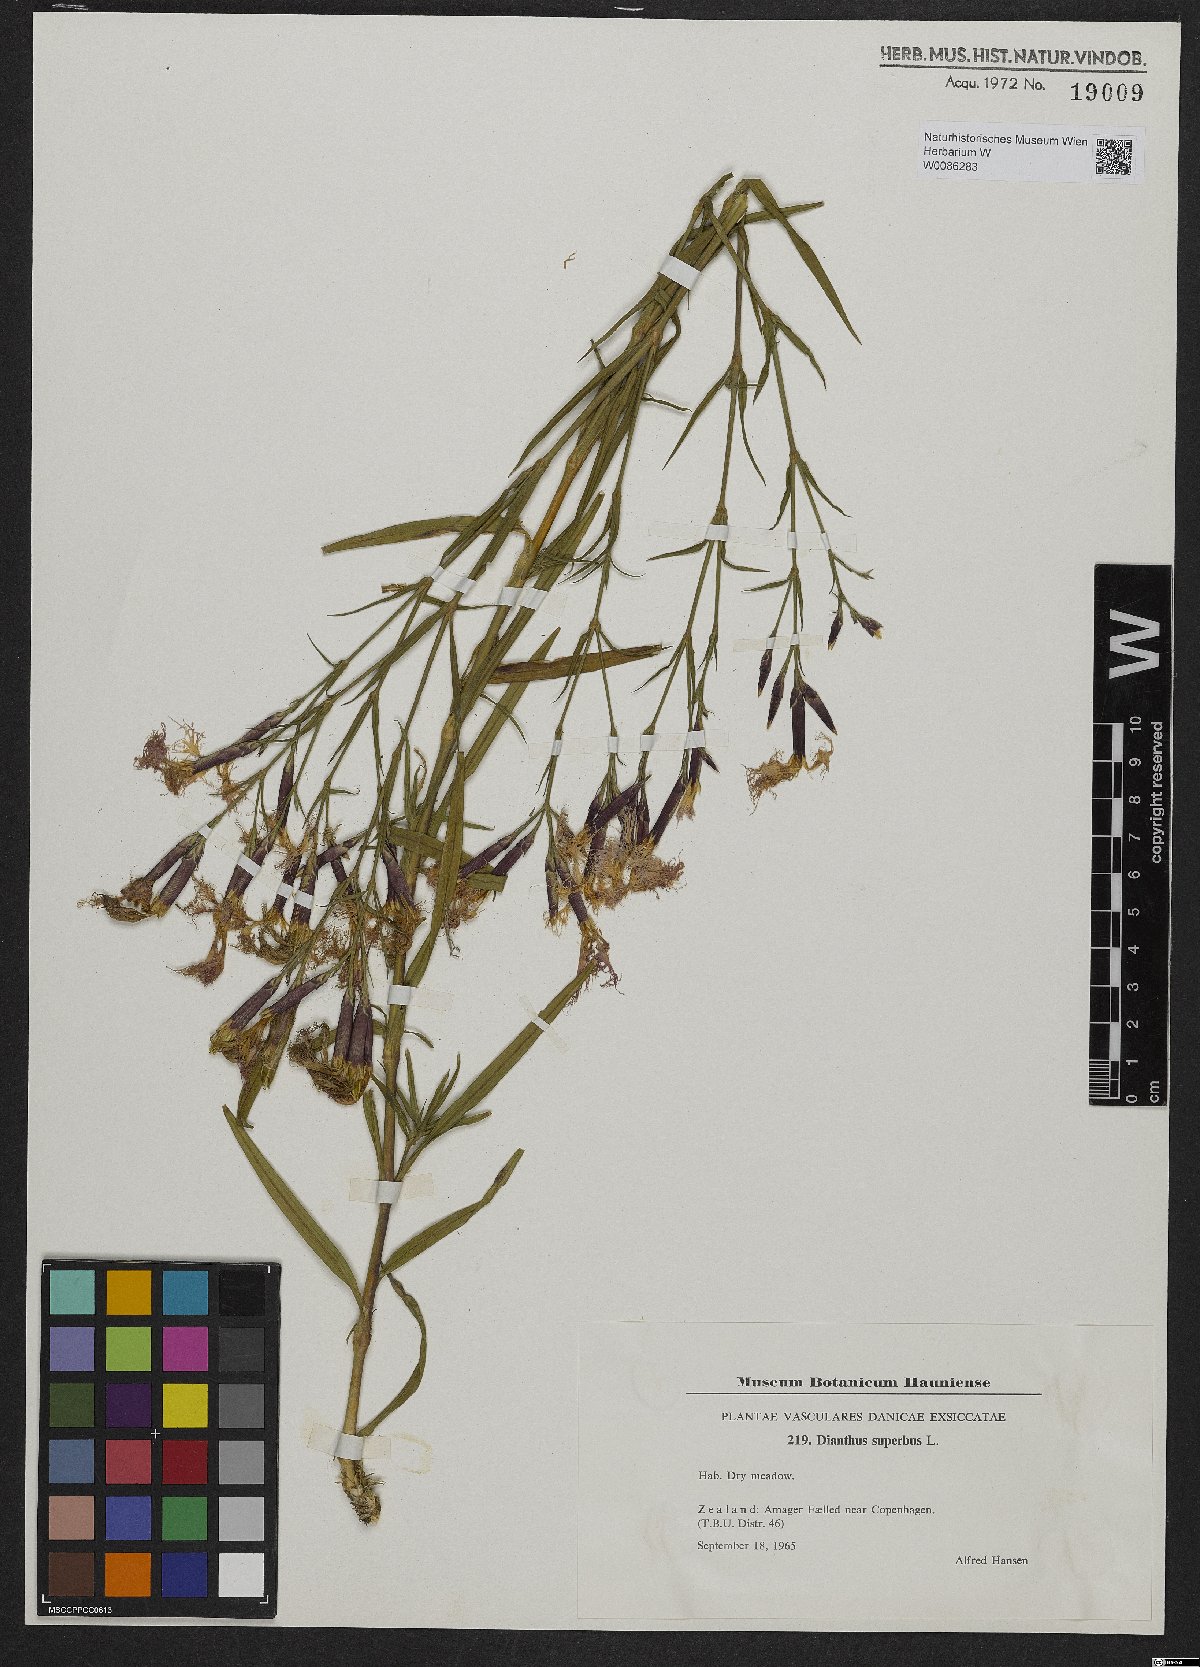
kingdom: Plantae
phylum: Tracheophyta
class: Magnoliopsida
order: Caryophyllales
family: Caryophyllaceae
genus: Dianthus
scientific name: Dianthus superbus
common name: Fringed pink
